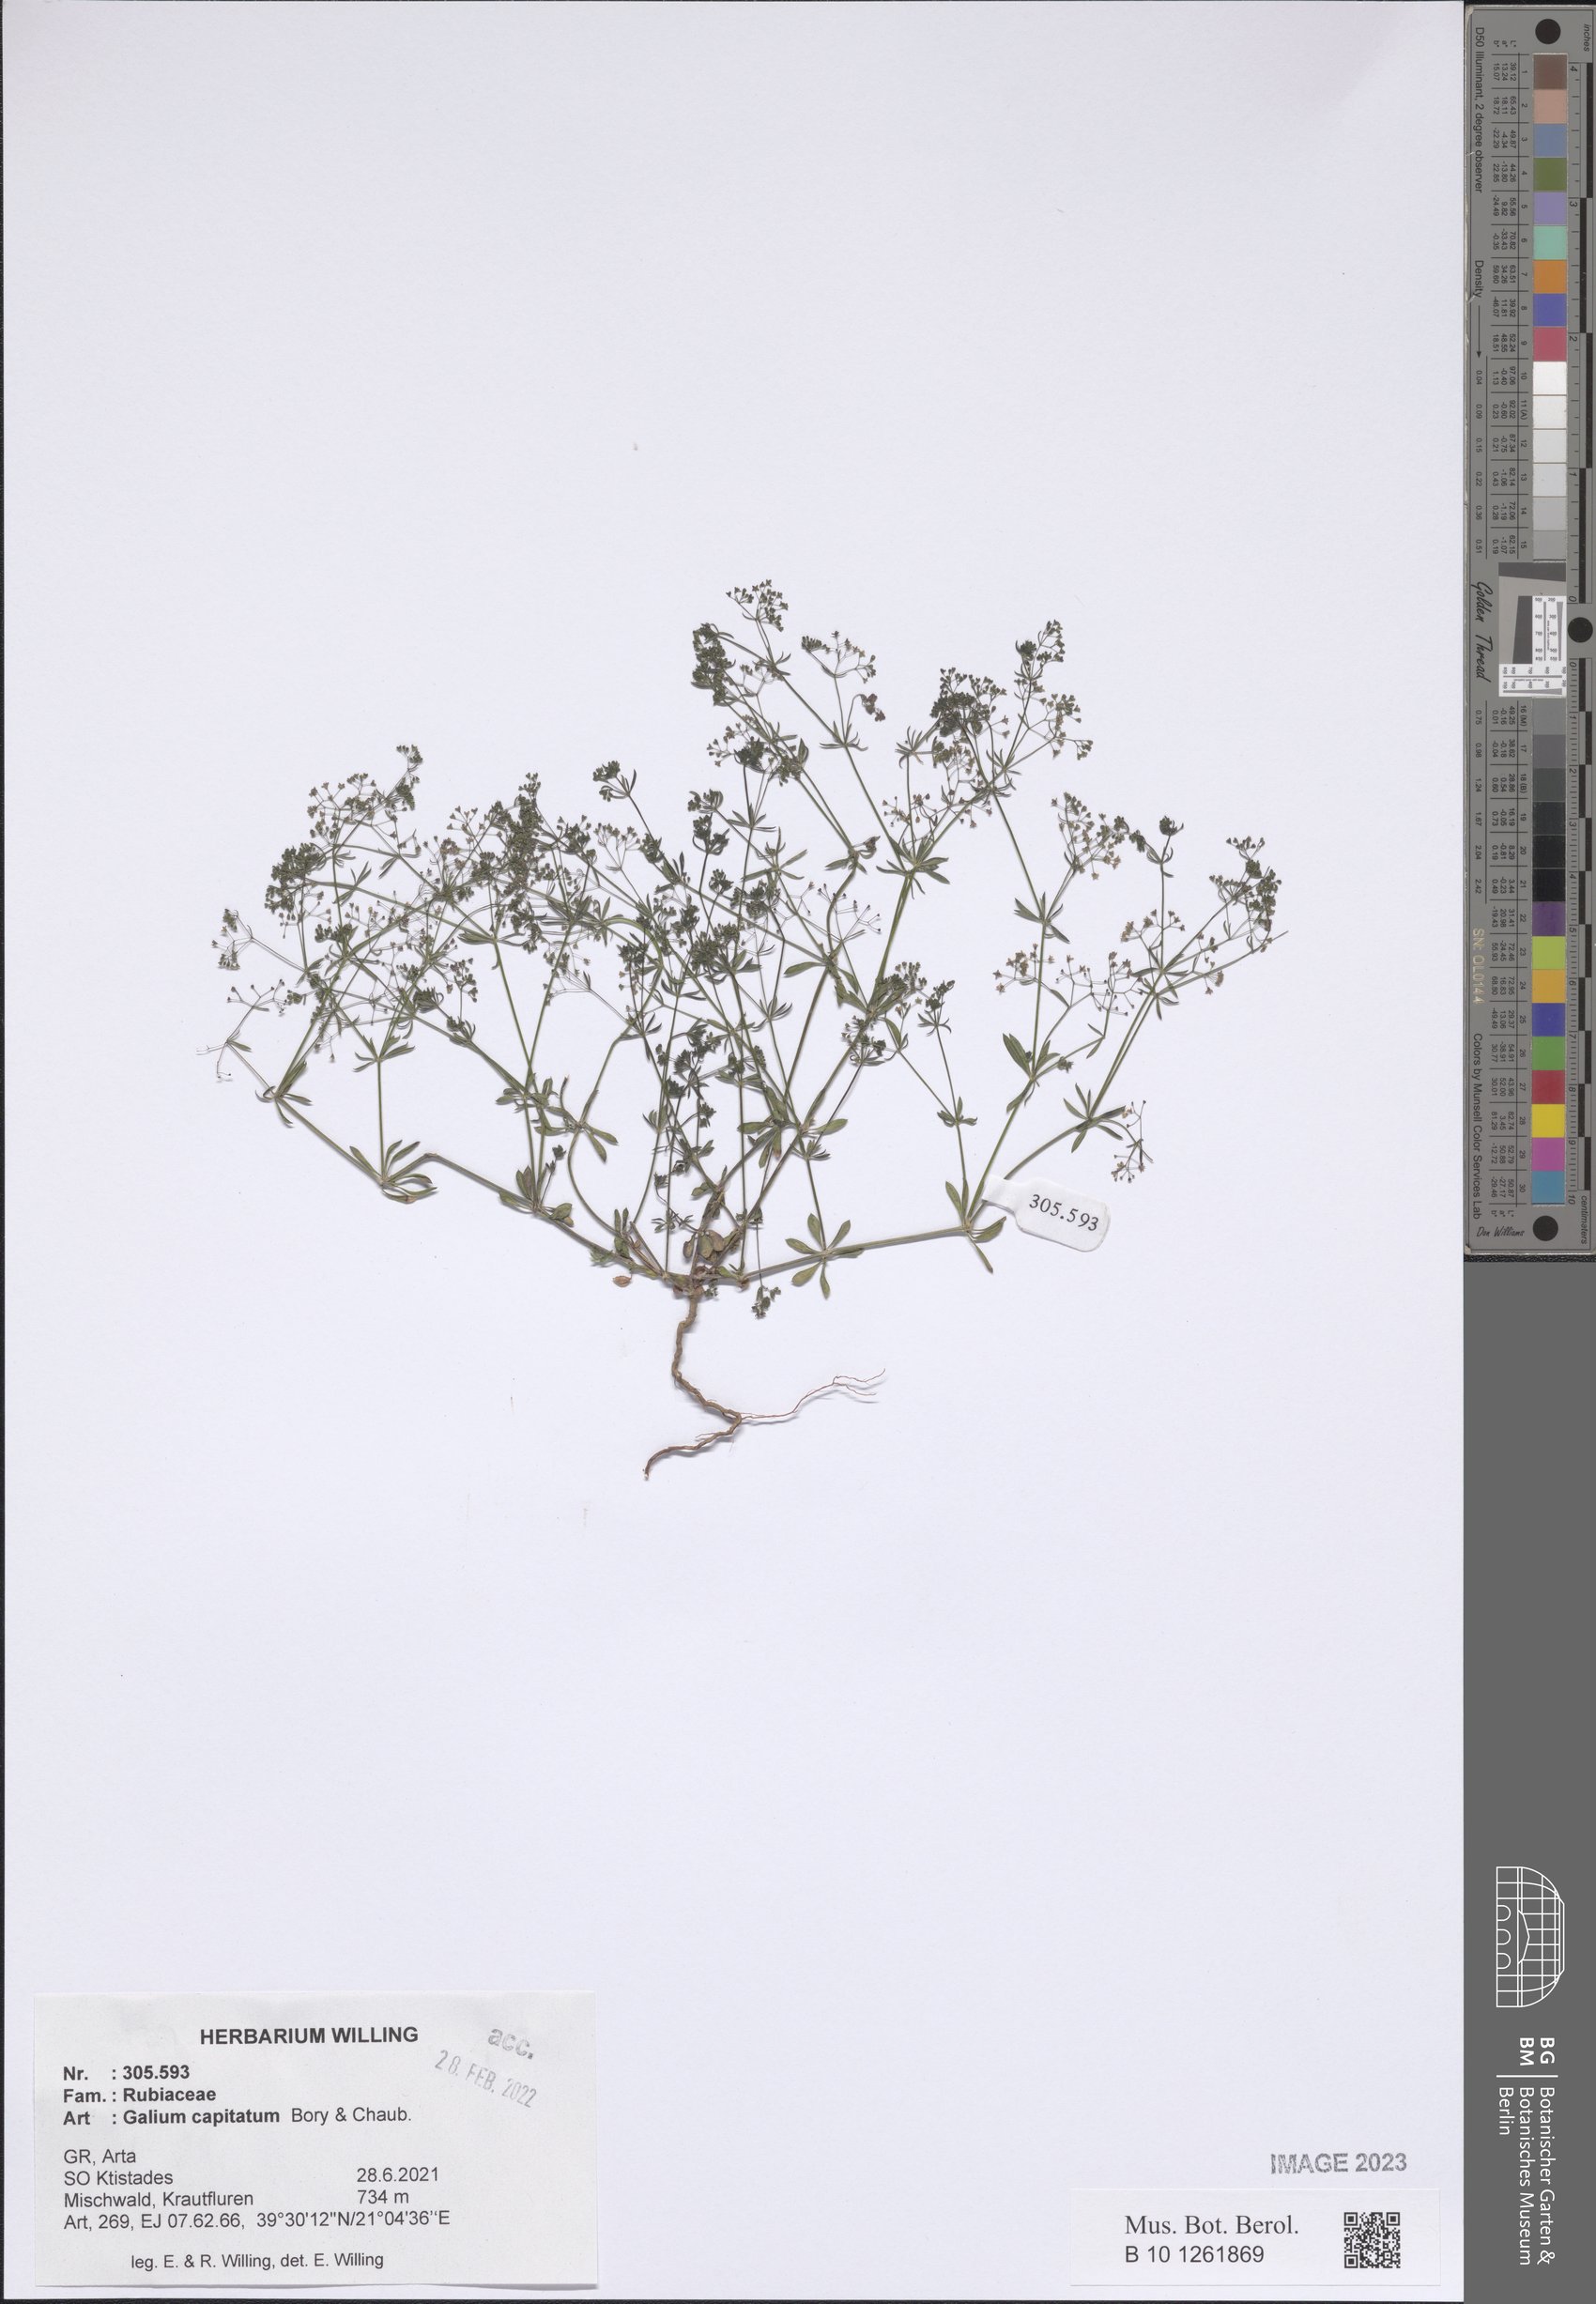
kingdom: Plantae
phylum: Tracheophyta
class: Magnoliopsida
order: Gentianales
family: Rubiaceae
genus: Galium
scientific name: Galium capitatum
